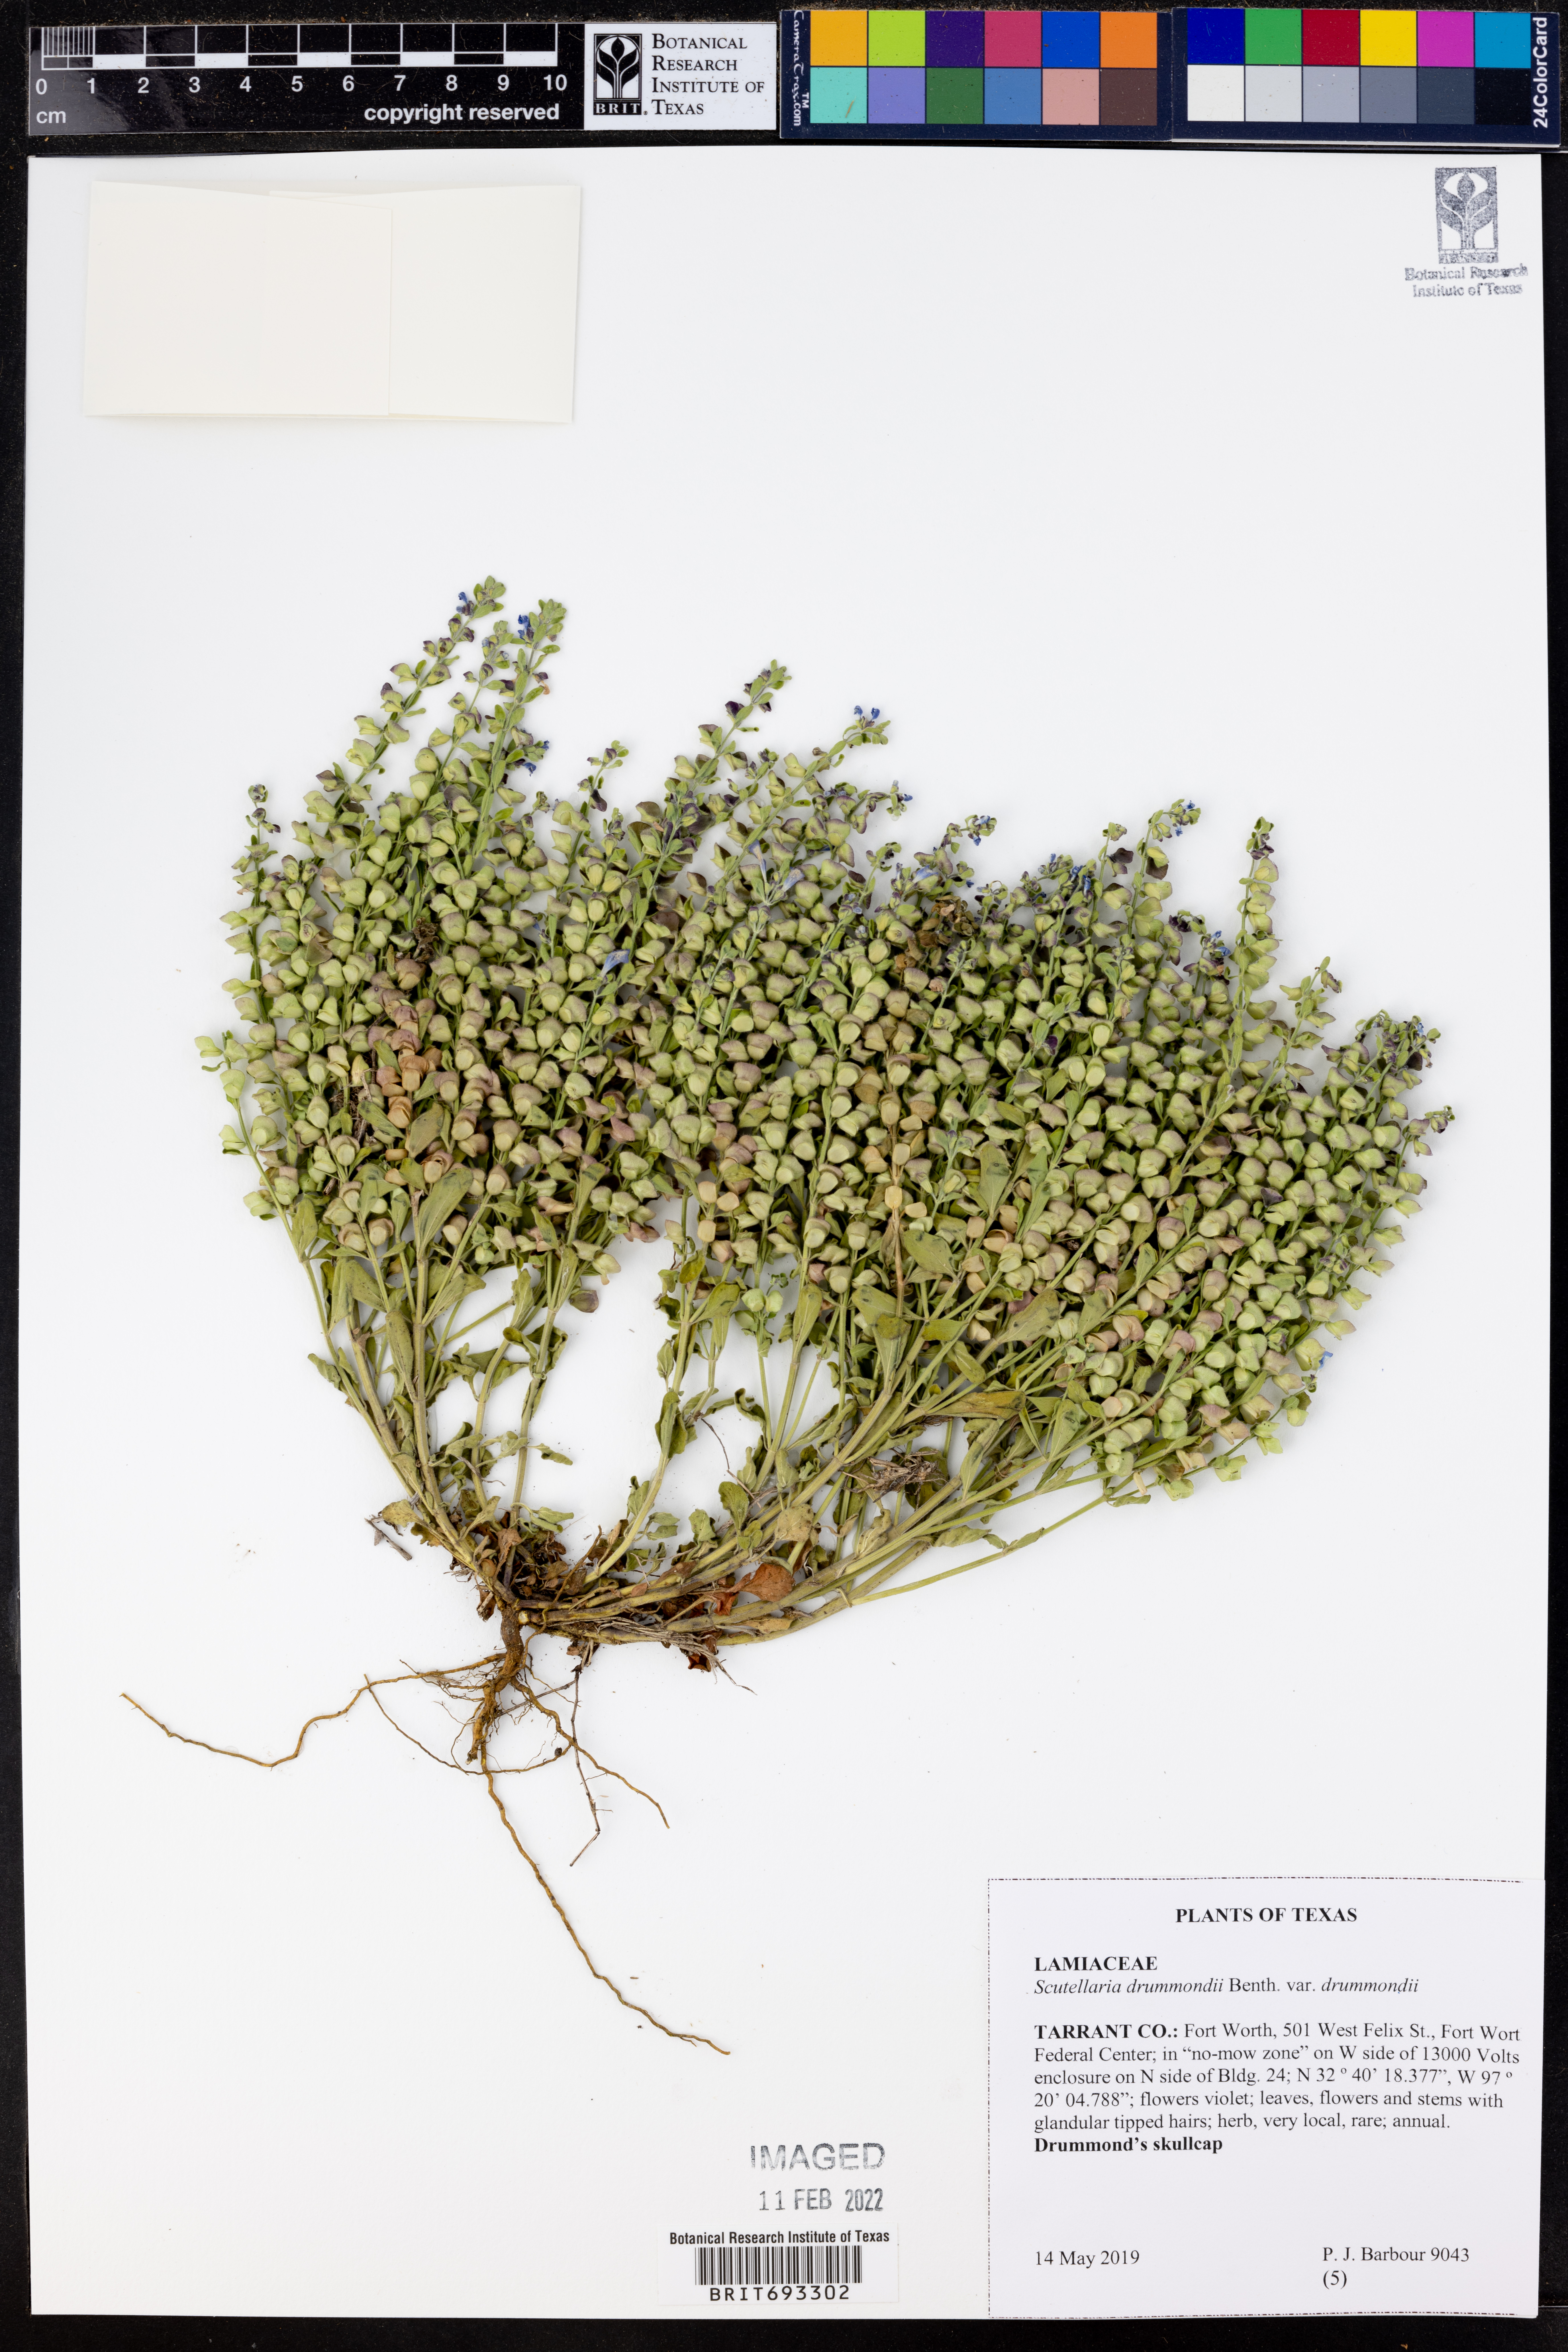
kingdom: Plantae
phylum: Tracheophyta
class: Magnoliopsida
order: Lamiales
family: Lamiaceae
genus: Scutellaria
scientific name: Scutellaria drummondii
